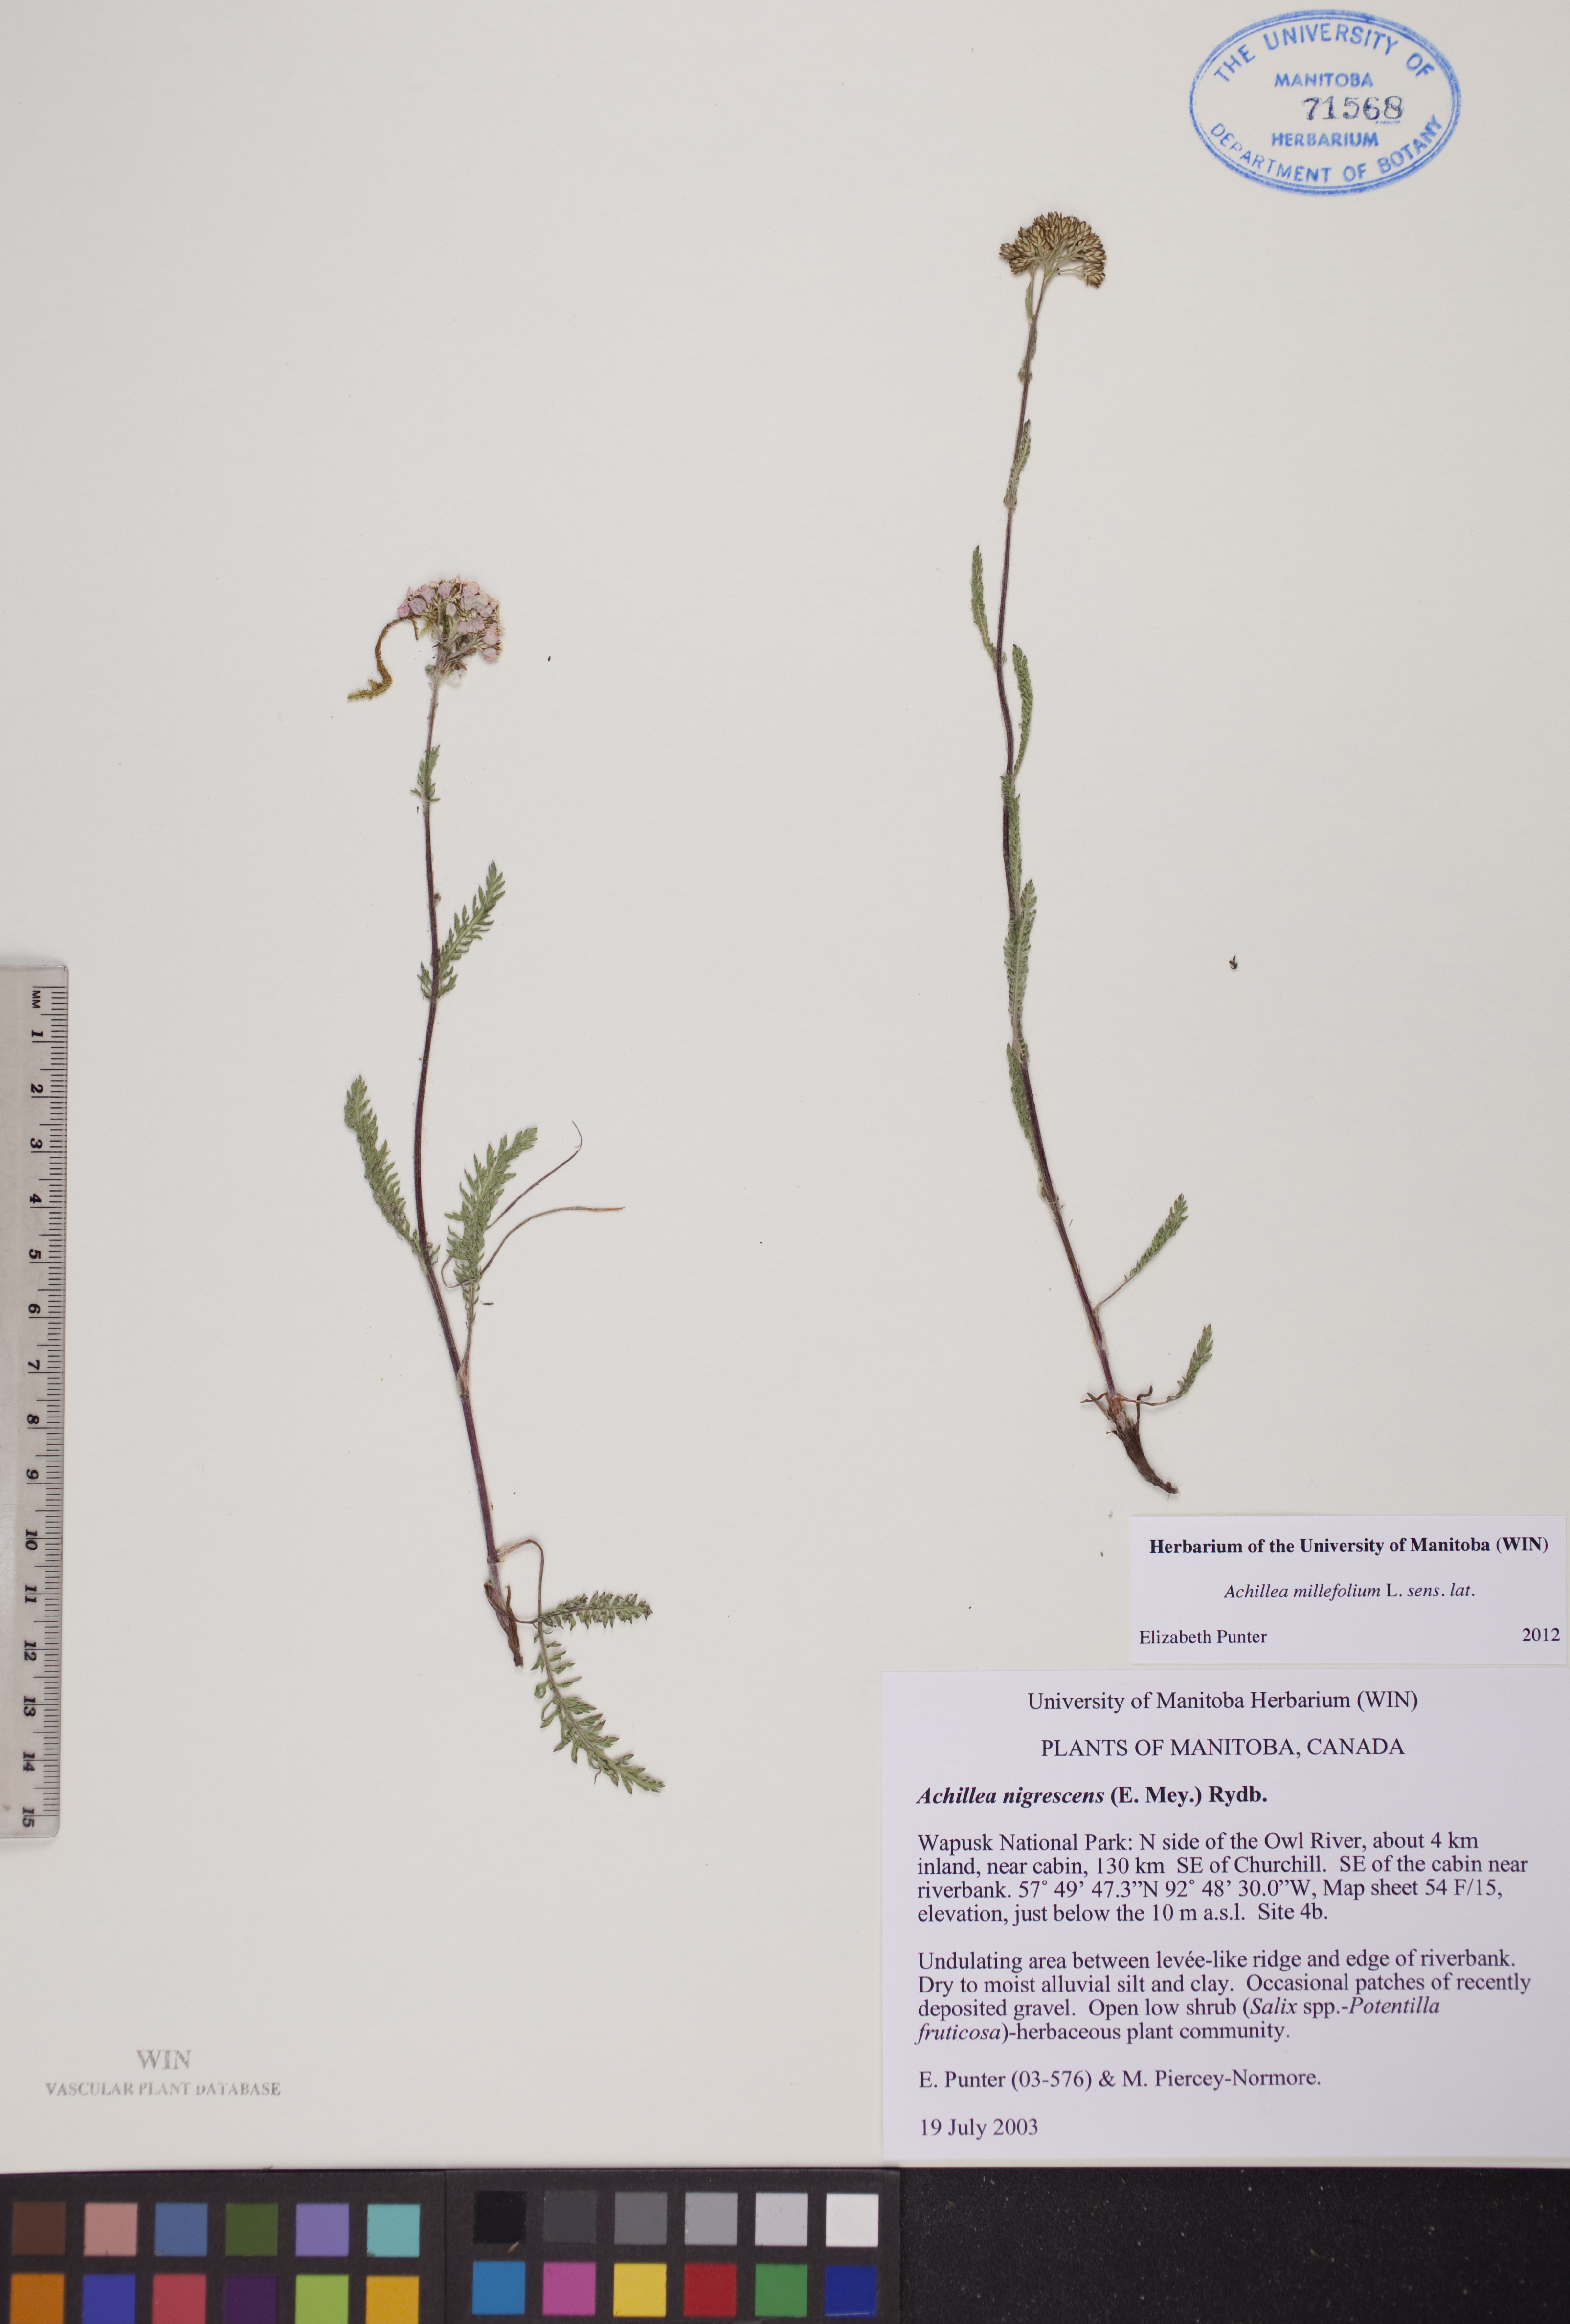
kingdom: Plantae
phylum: Tracheophyta
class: Magnoliopsida
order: Asterales
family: Asteraceae
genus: Achillea
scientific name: Achillea millefolium
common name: Yarrow
